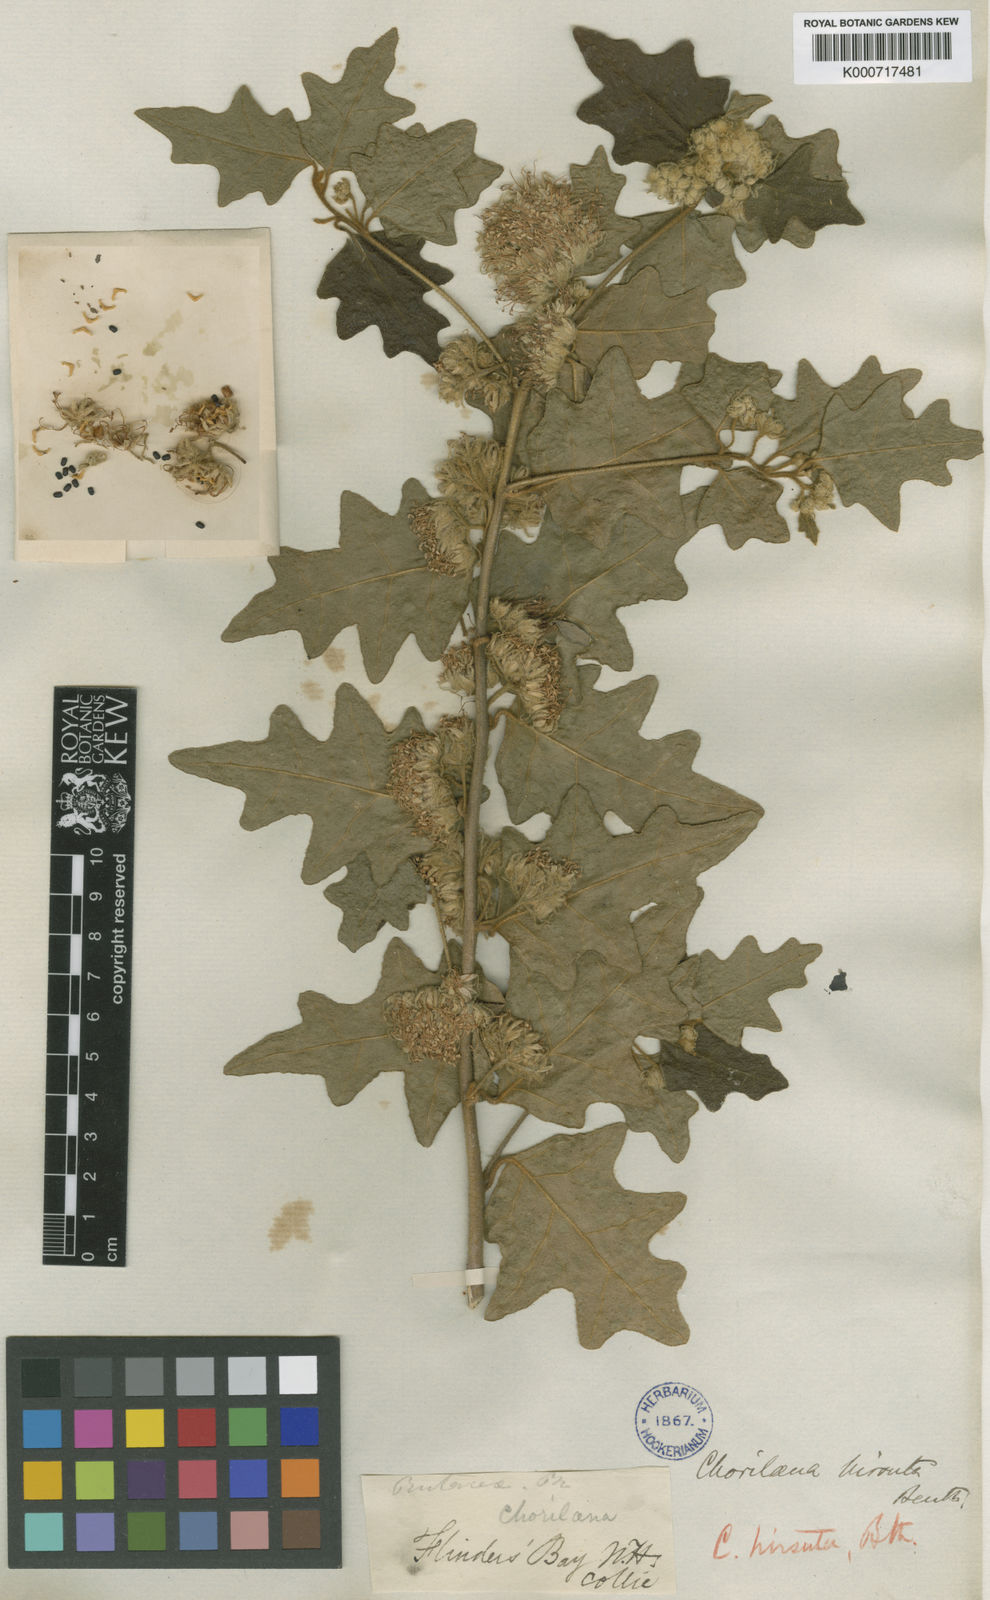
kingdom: Plantae
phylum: Tracheophyta
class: Magnoliopsida
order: Sapindales
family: Rutaceae
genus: Chorilaena
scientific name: Chorilaena quercifolia
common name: Wild hop
